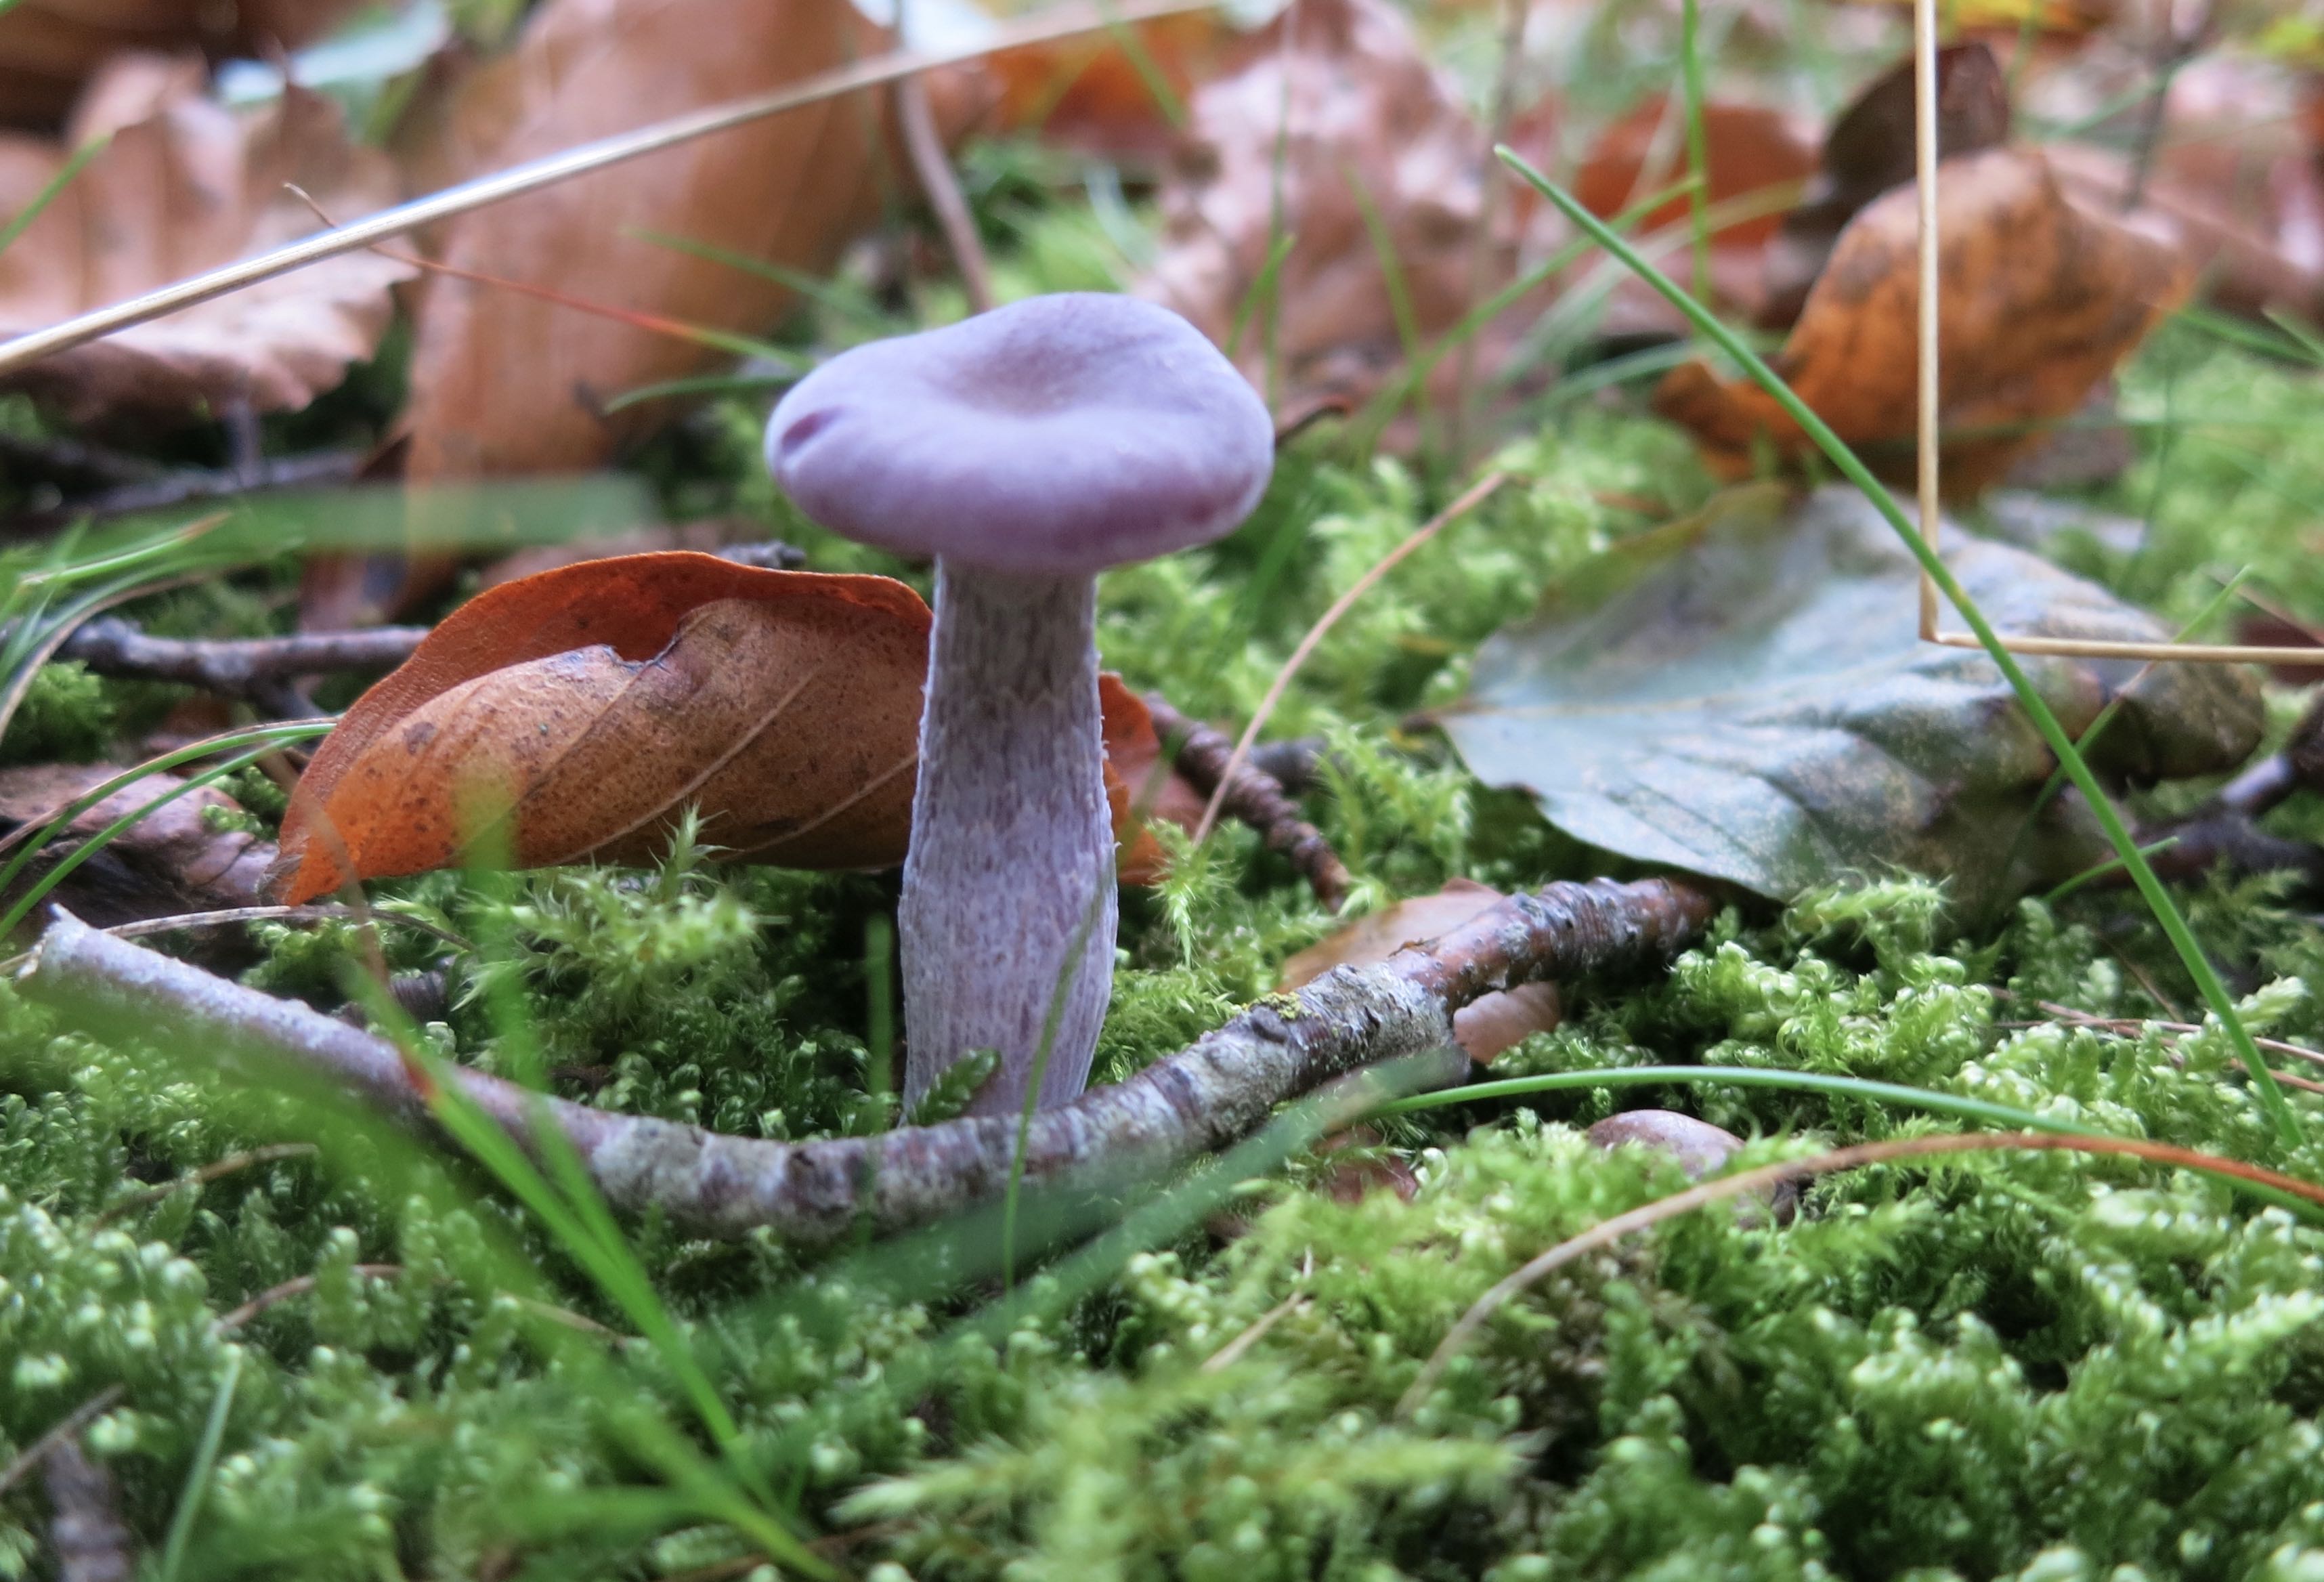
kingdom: Fungi
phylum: Basidiomycota
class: Agaricomycetes
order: Agaricales
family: Hydnangiaceae
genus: Laccaria
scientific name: Laccaria amethystina
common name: violet ametysthat
